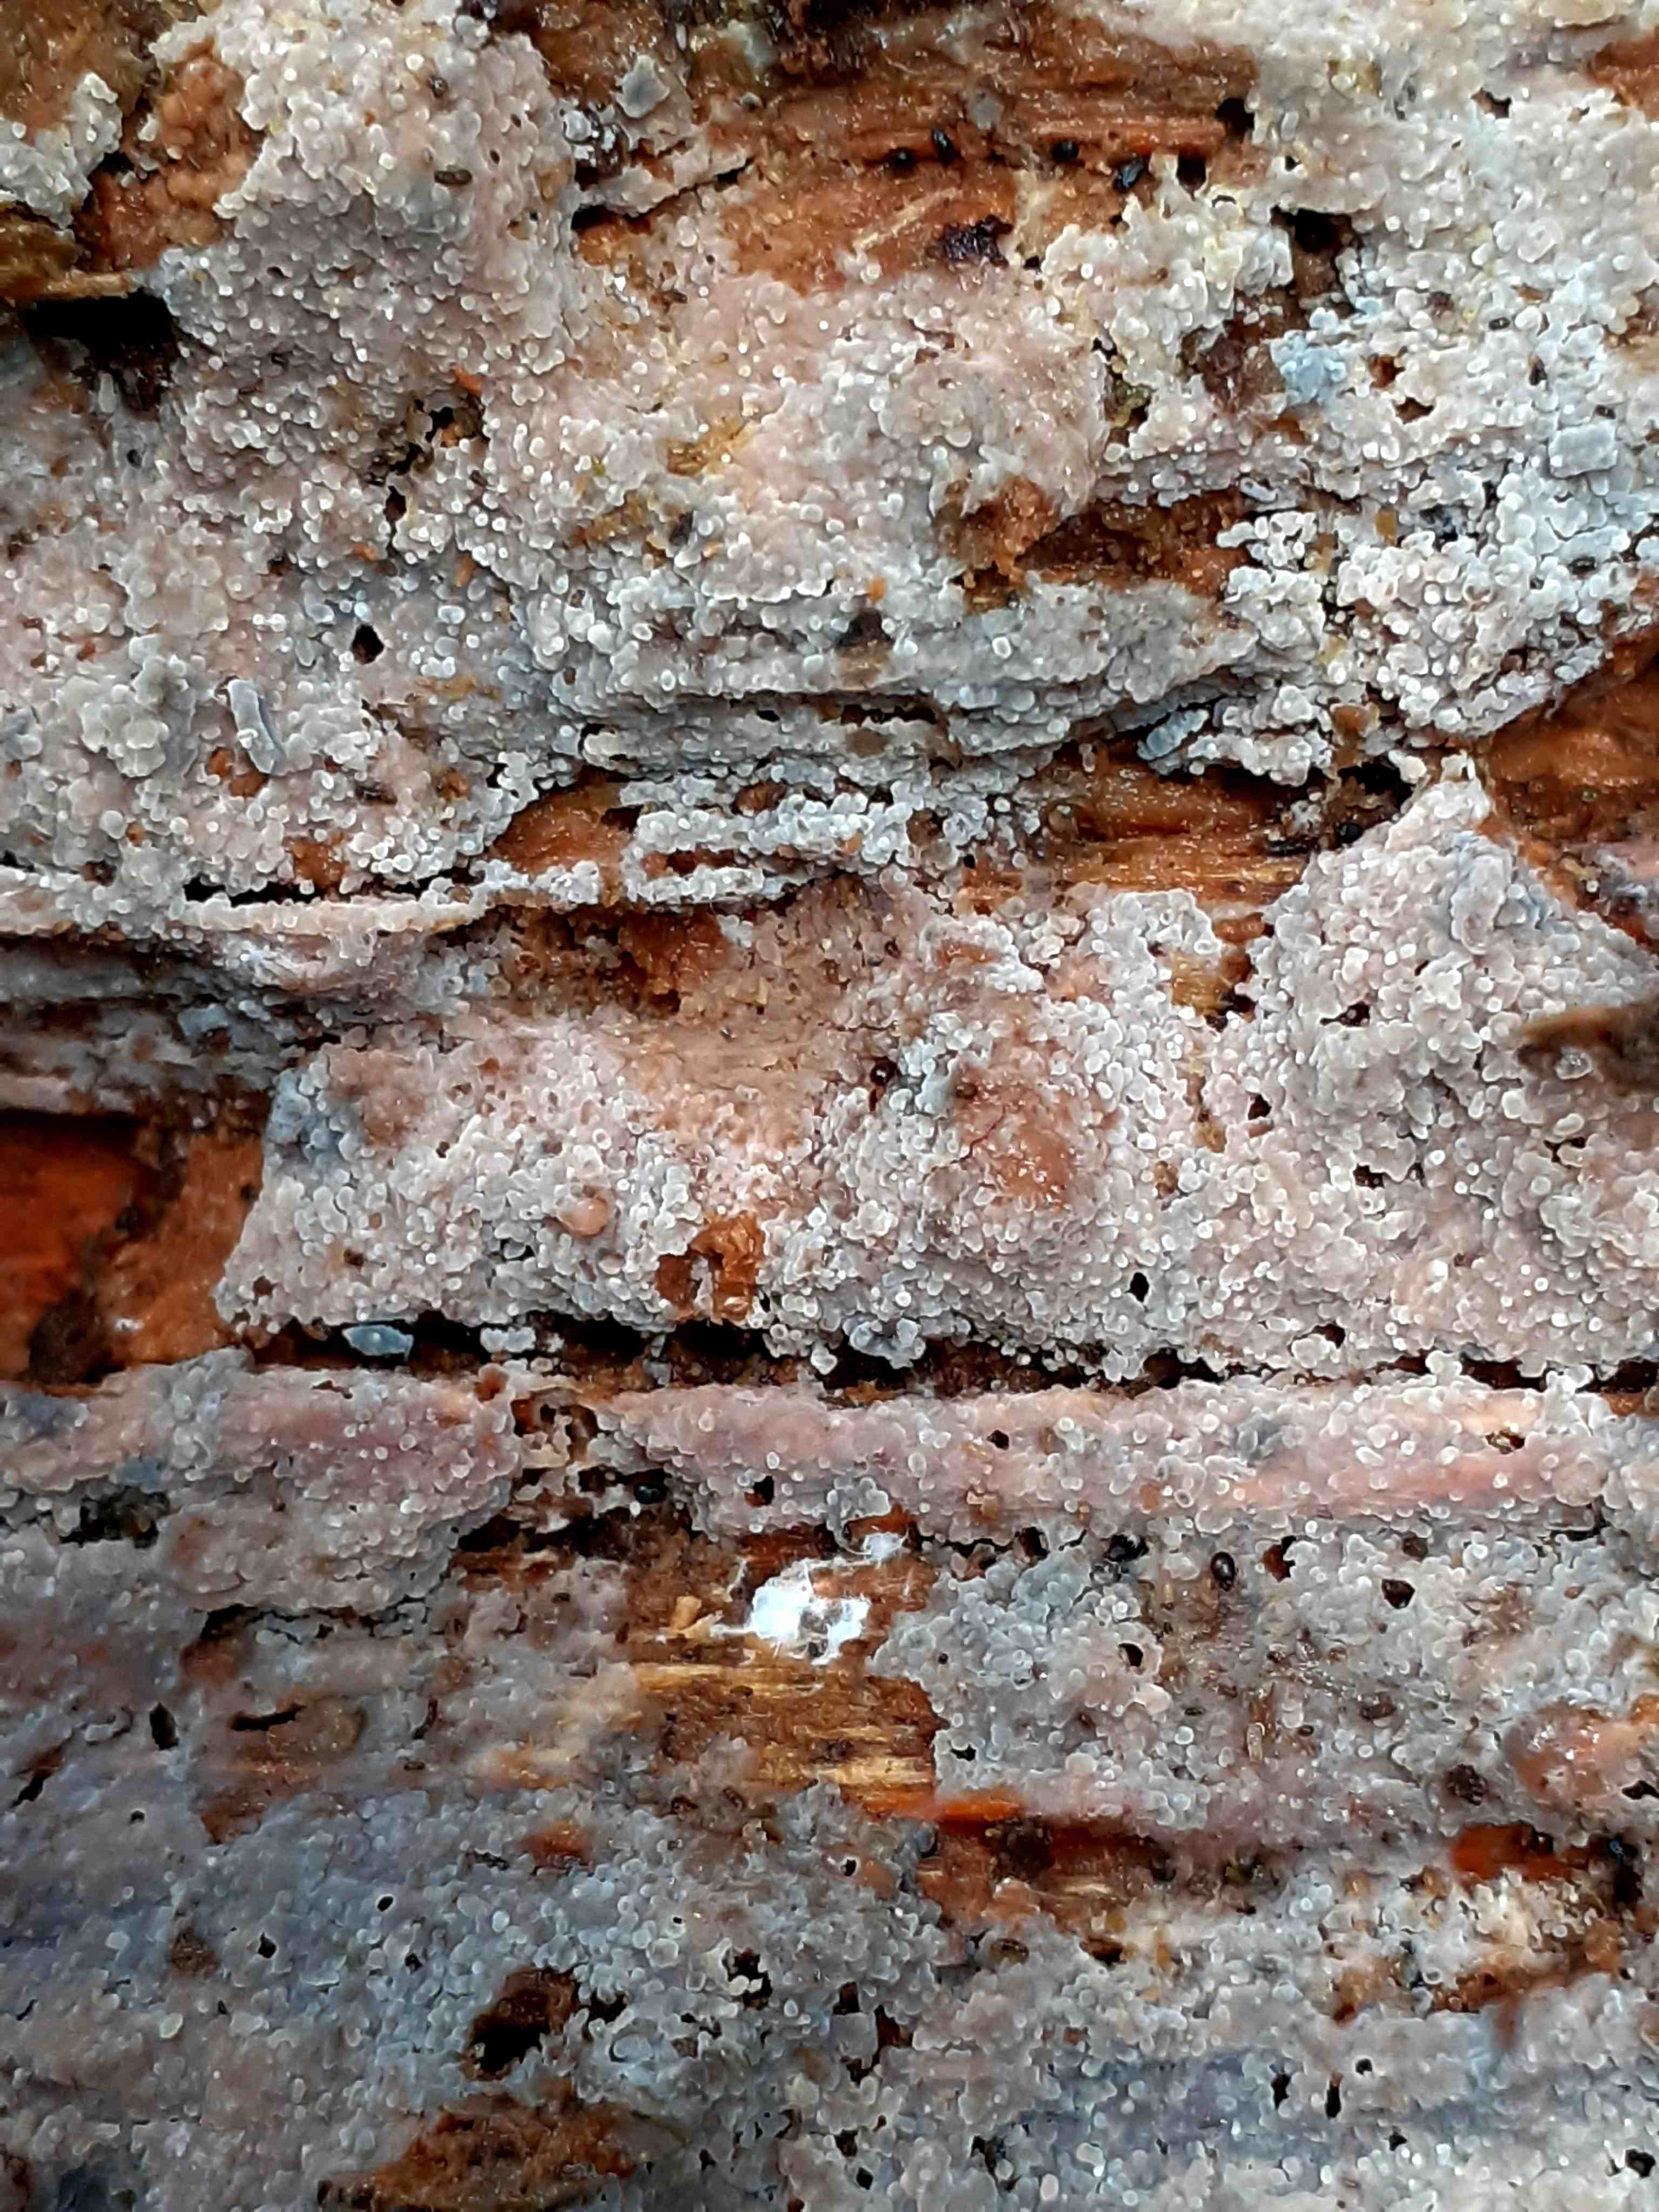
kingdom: Fungi
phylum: Basidiomycota
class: Agaricomycetes
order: Hymenochaetales
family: Rickenellaceae
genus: Resinicium
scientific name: Resinicium bicolor
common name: almindelig vokstand
